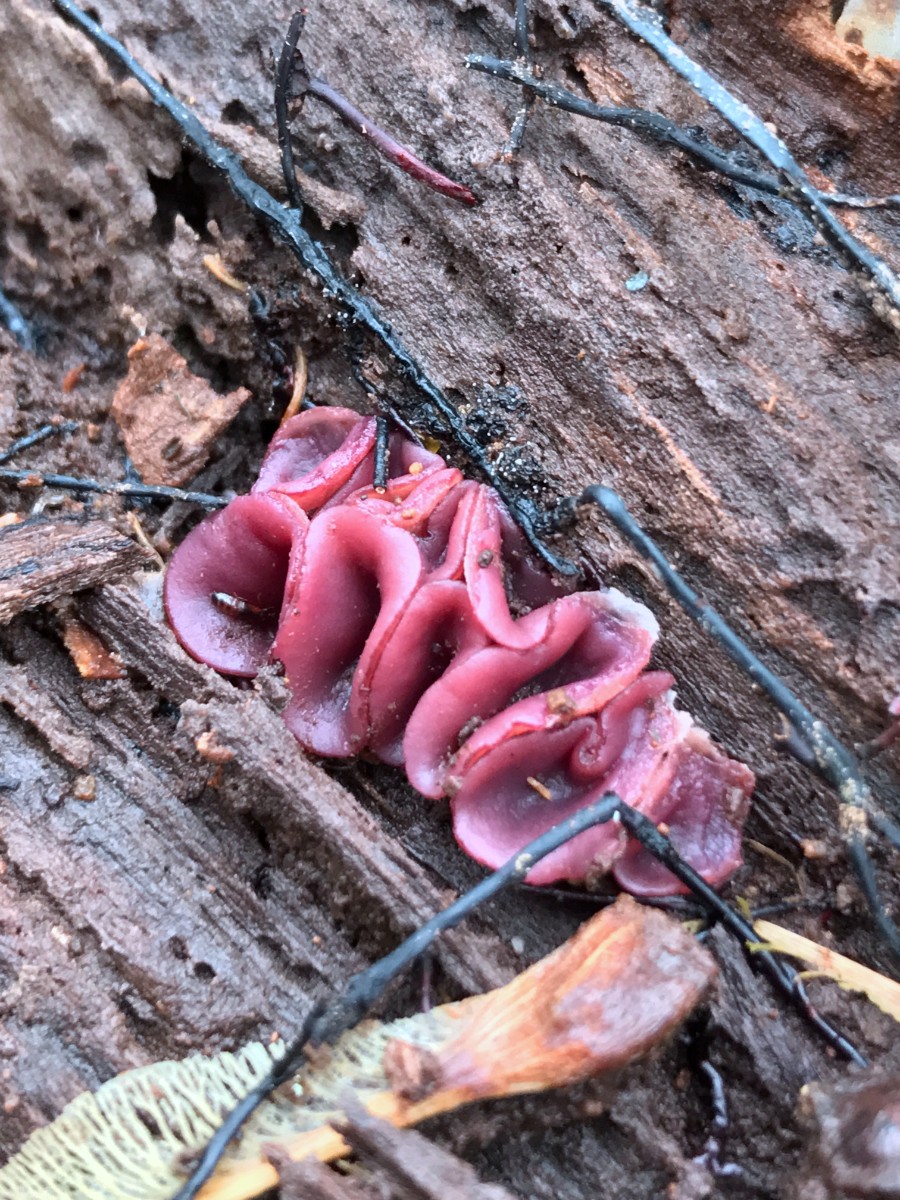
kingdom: Fungi
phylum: Ascomycota
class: Leotiomycetes
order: Helotiales
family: Gelatinodiscaceae
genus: Ascocoryne
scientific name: Ascocoryne cylichnium
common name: stor sejskive
